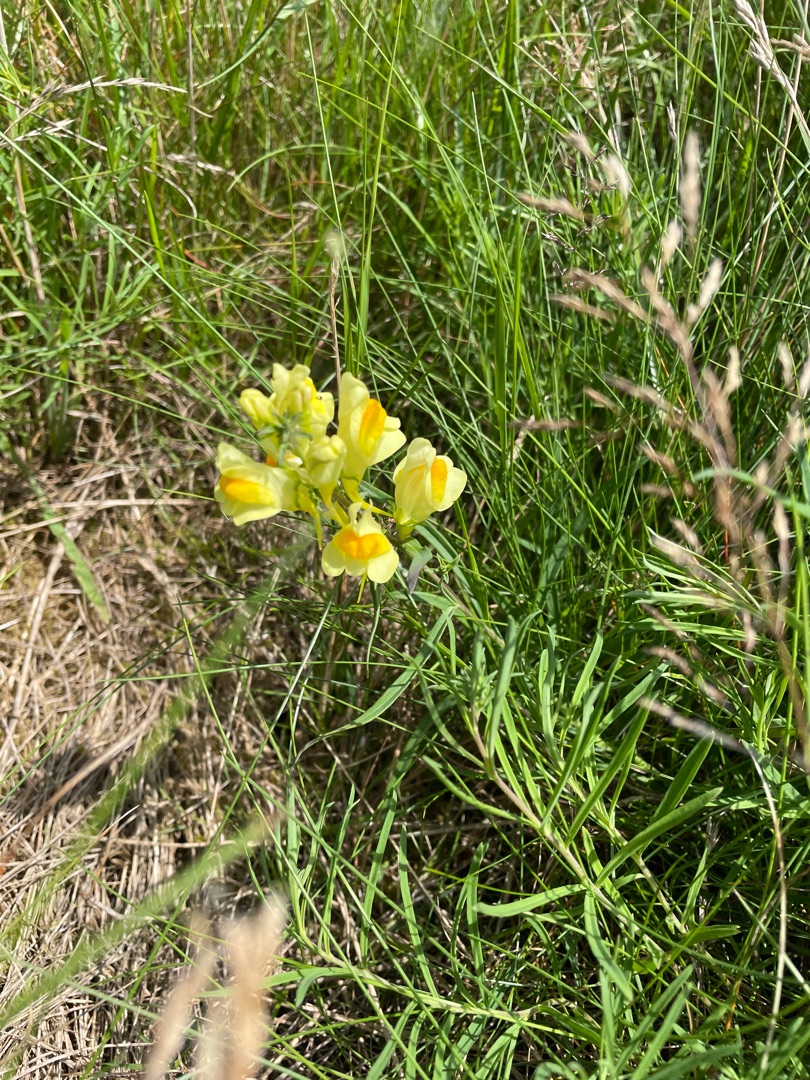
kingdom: Plantae
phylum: Tracheophyta
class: Magnoliopsida
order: Lamiales
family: Plantaginaceae
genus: Linaria
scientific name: Linaria vulgaris
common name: Almindelig torskemund
